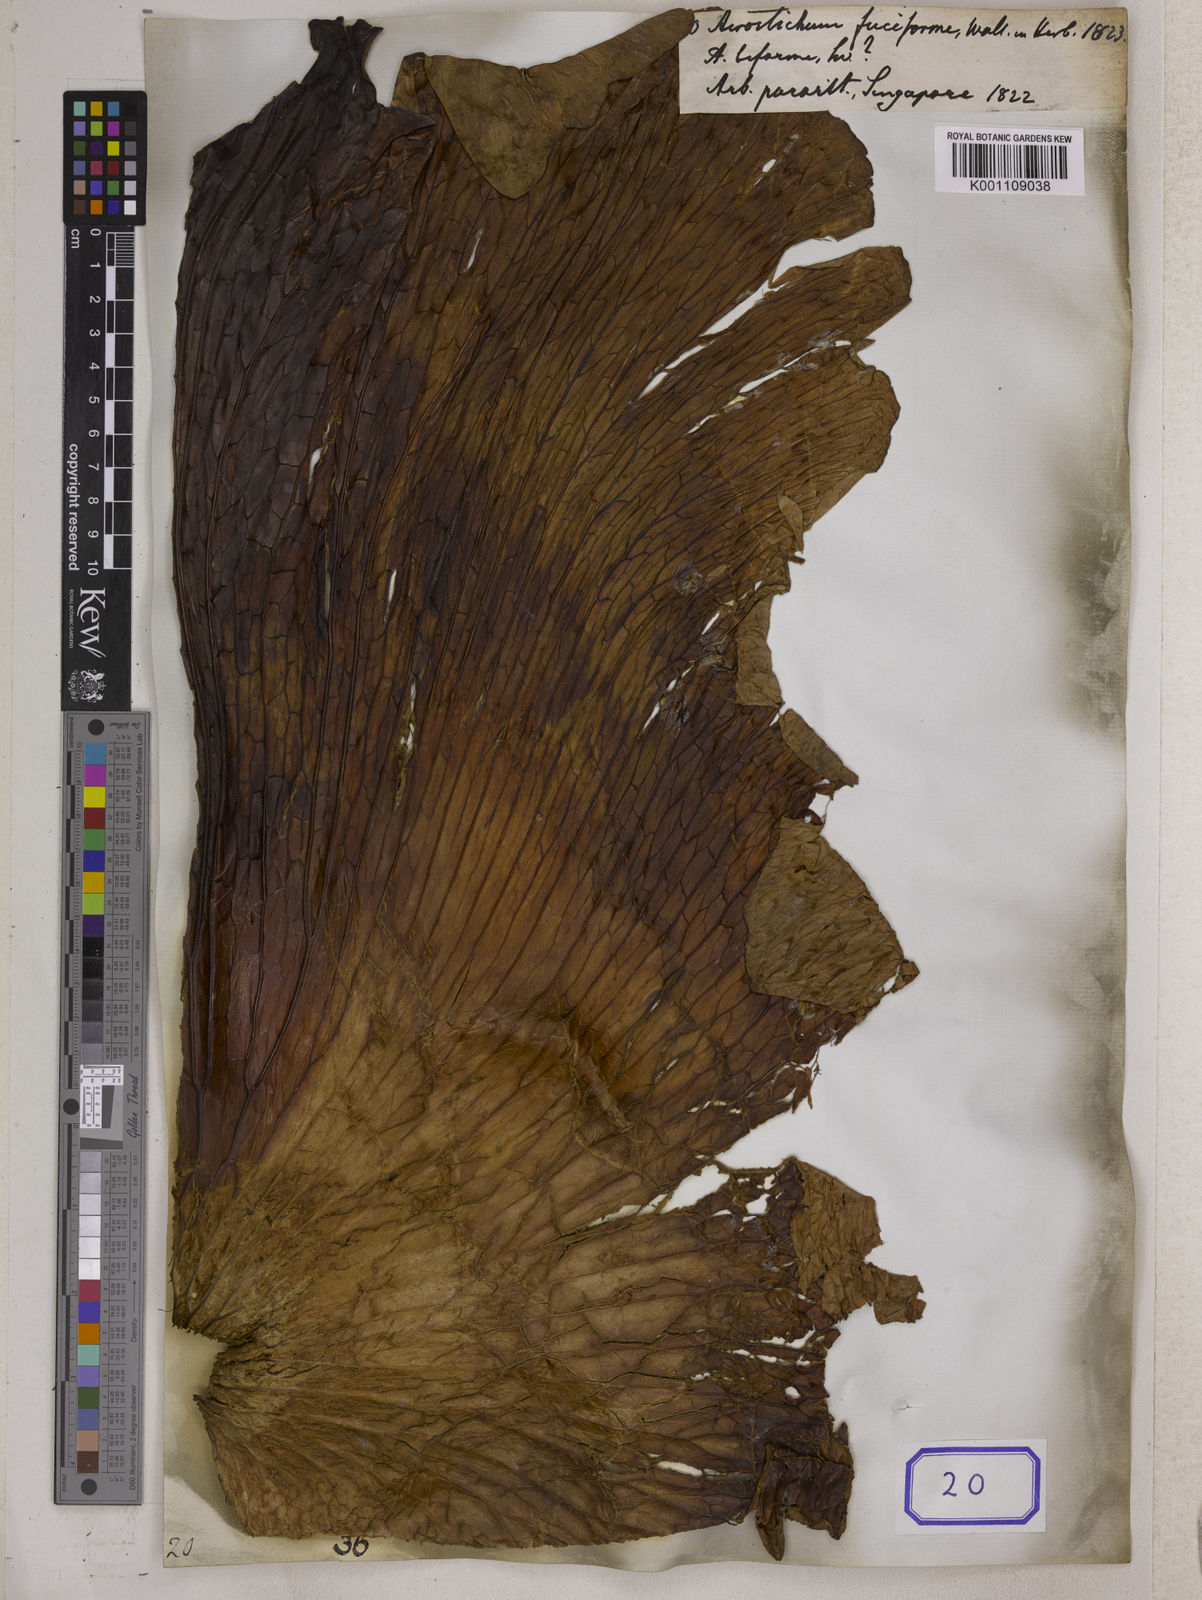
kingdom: Plantae
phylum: Tracheophyta
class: Polypodiopsida
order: Polypodiales
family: Polypodiaceae
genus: Platycerium
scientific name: Platycerium coronarium
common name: Elkhorn fern
